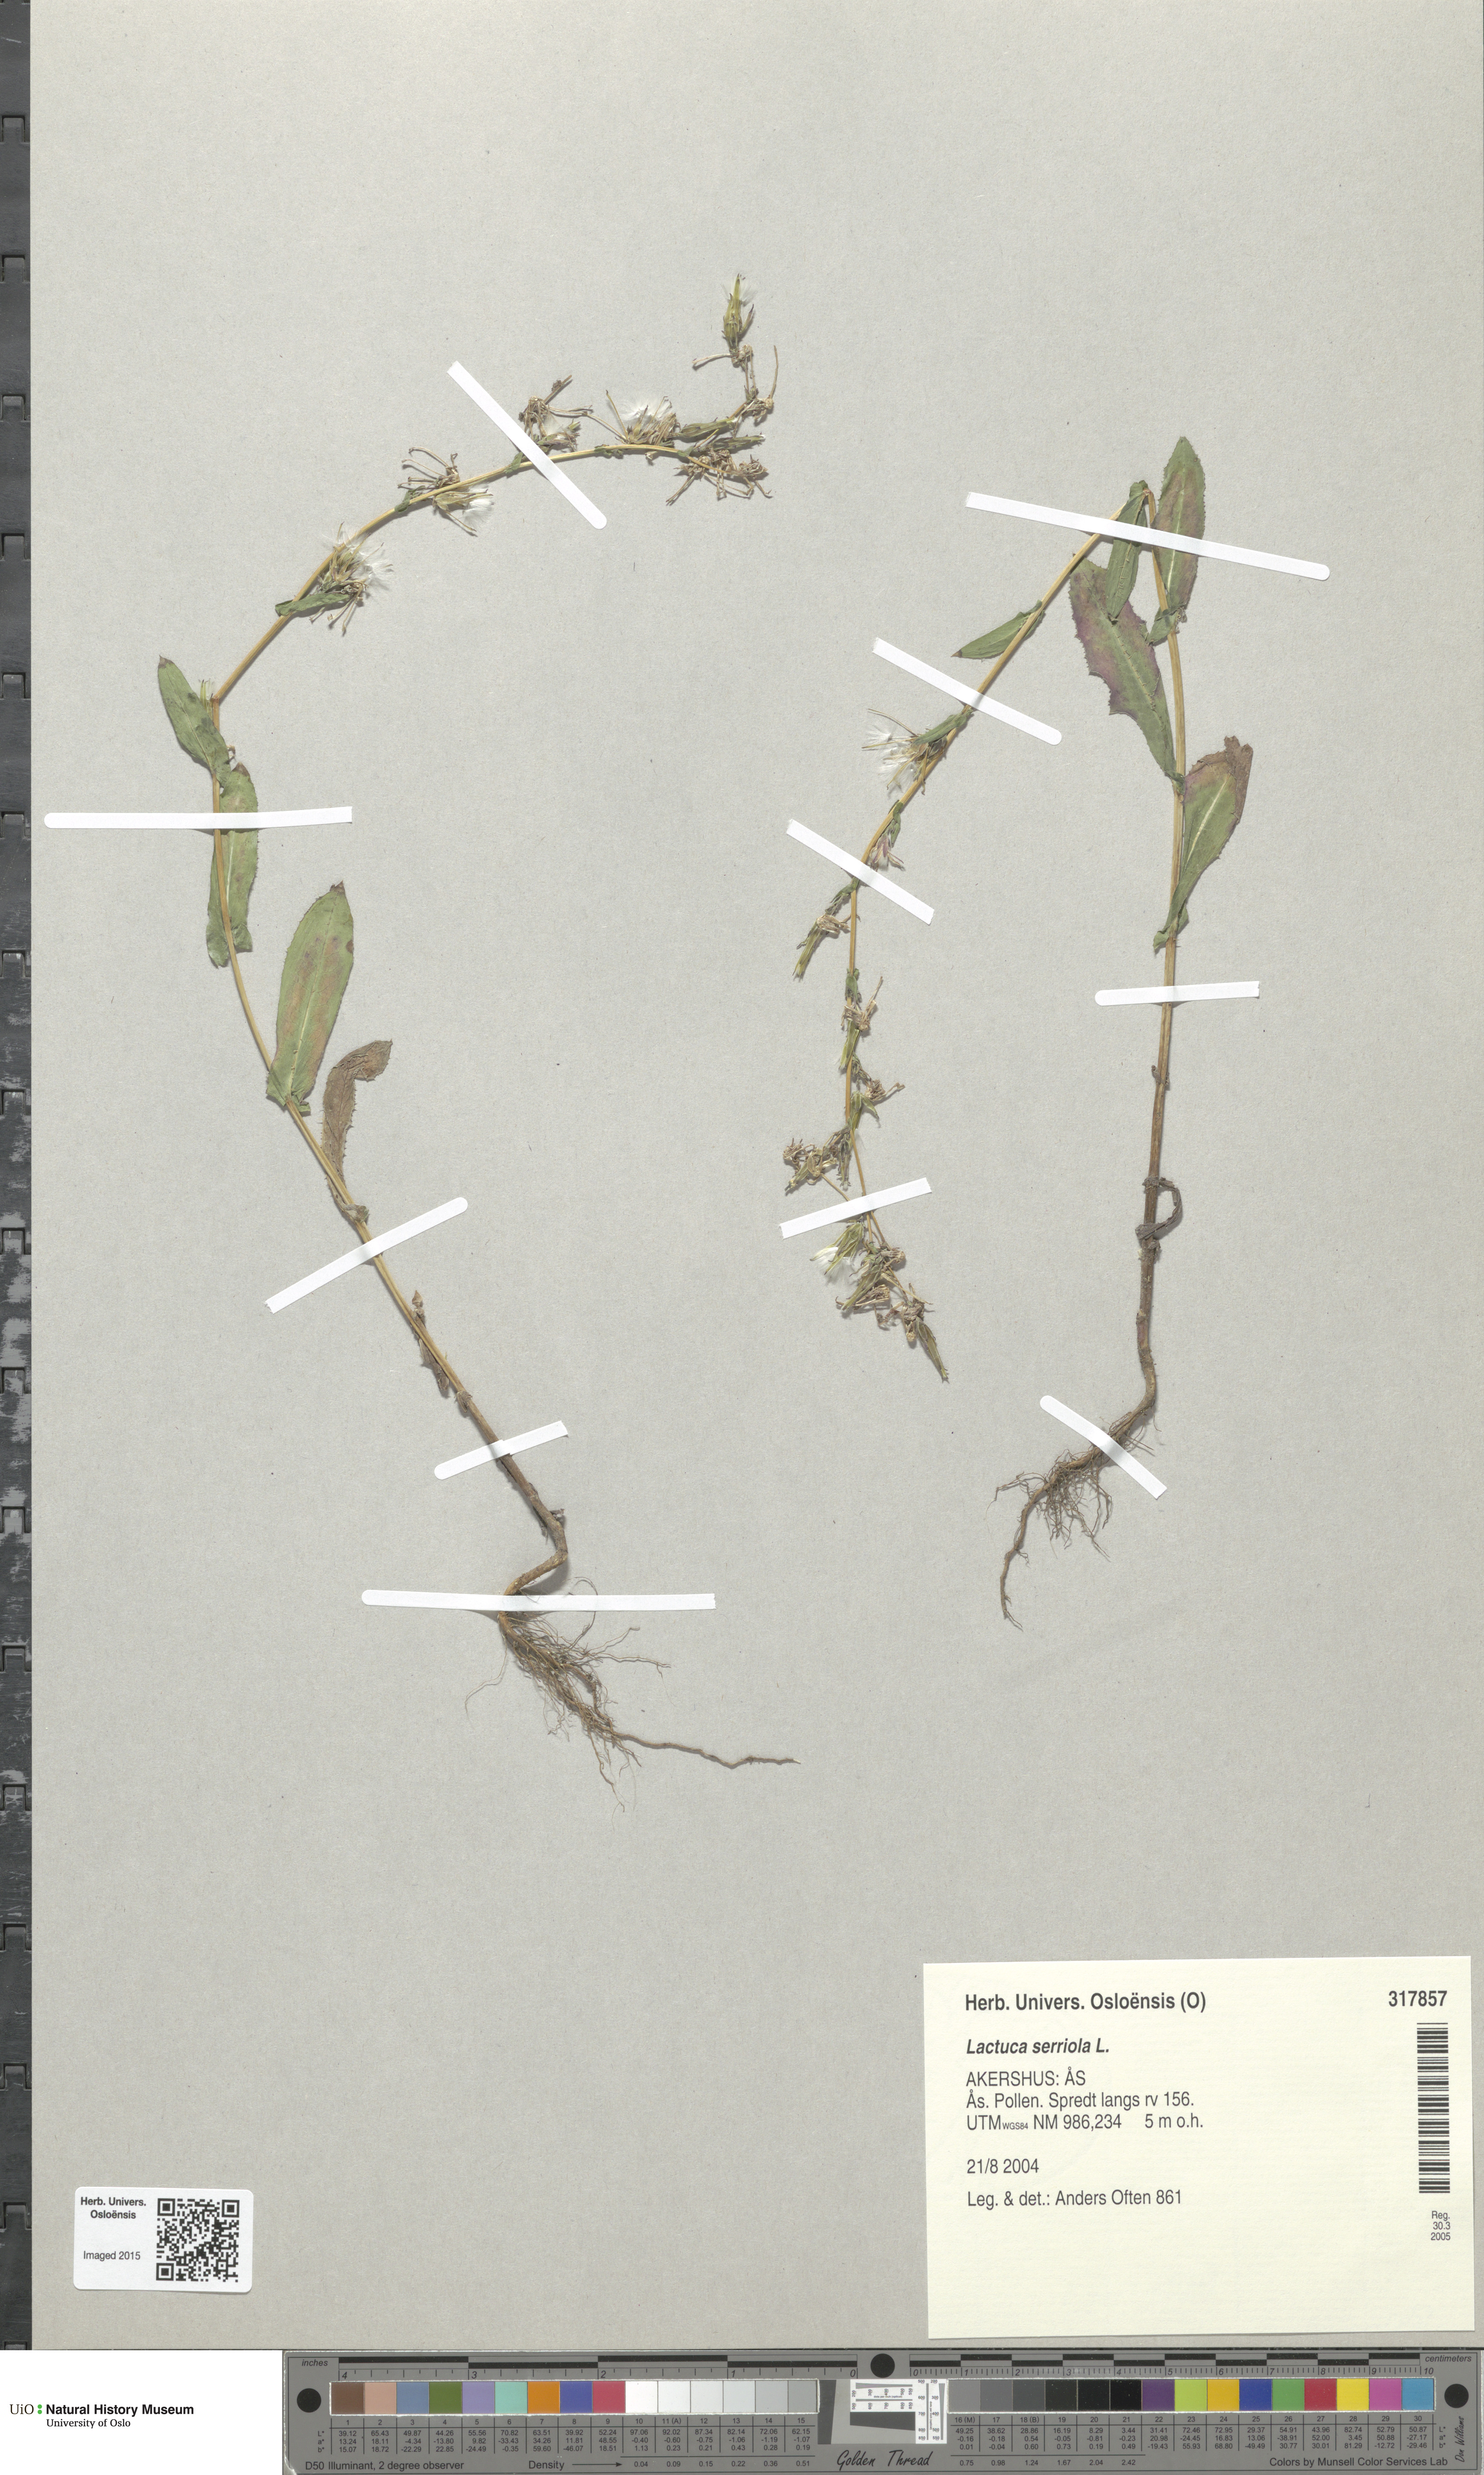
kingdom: Plantae
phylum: Tracheophyta
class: Magnoliopsida
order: Asterales
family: Asteraceae
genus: Lactuca
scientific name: Lactuca serriola
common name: Prickly lettuce
